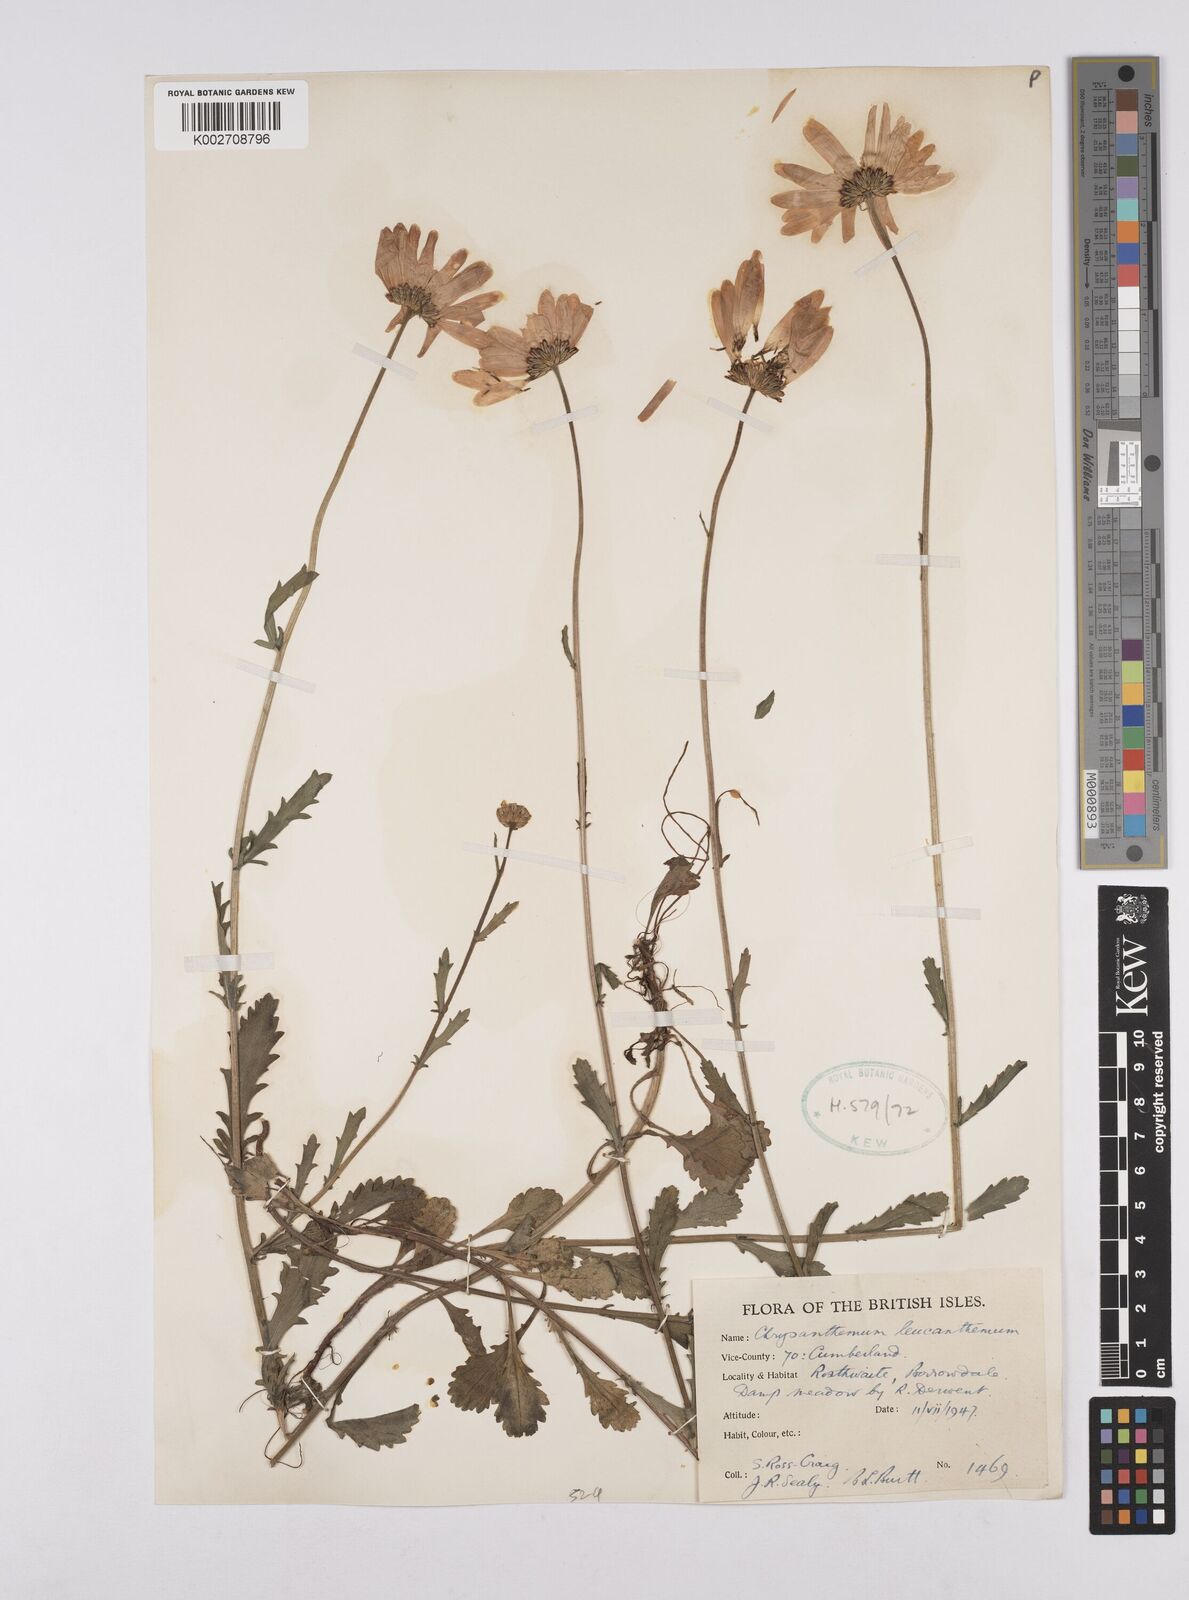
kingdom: Plantae
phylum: Tracheophyta
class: Magnoliopsida
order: Asterales
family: Asteraceae
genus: Leucanthemum
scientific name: Leucanthemum vulgare
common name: Oxeye daisy
